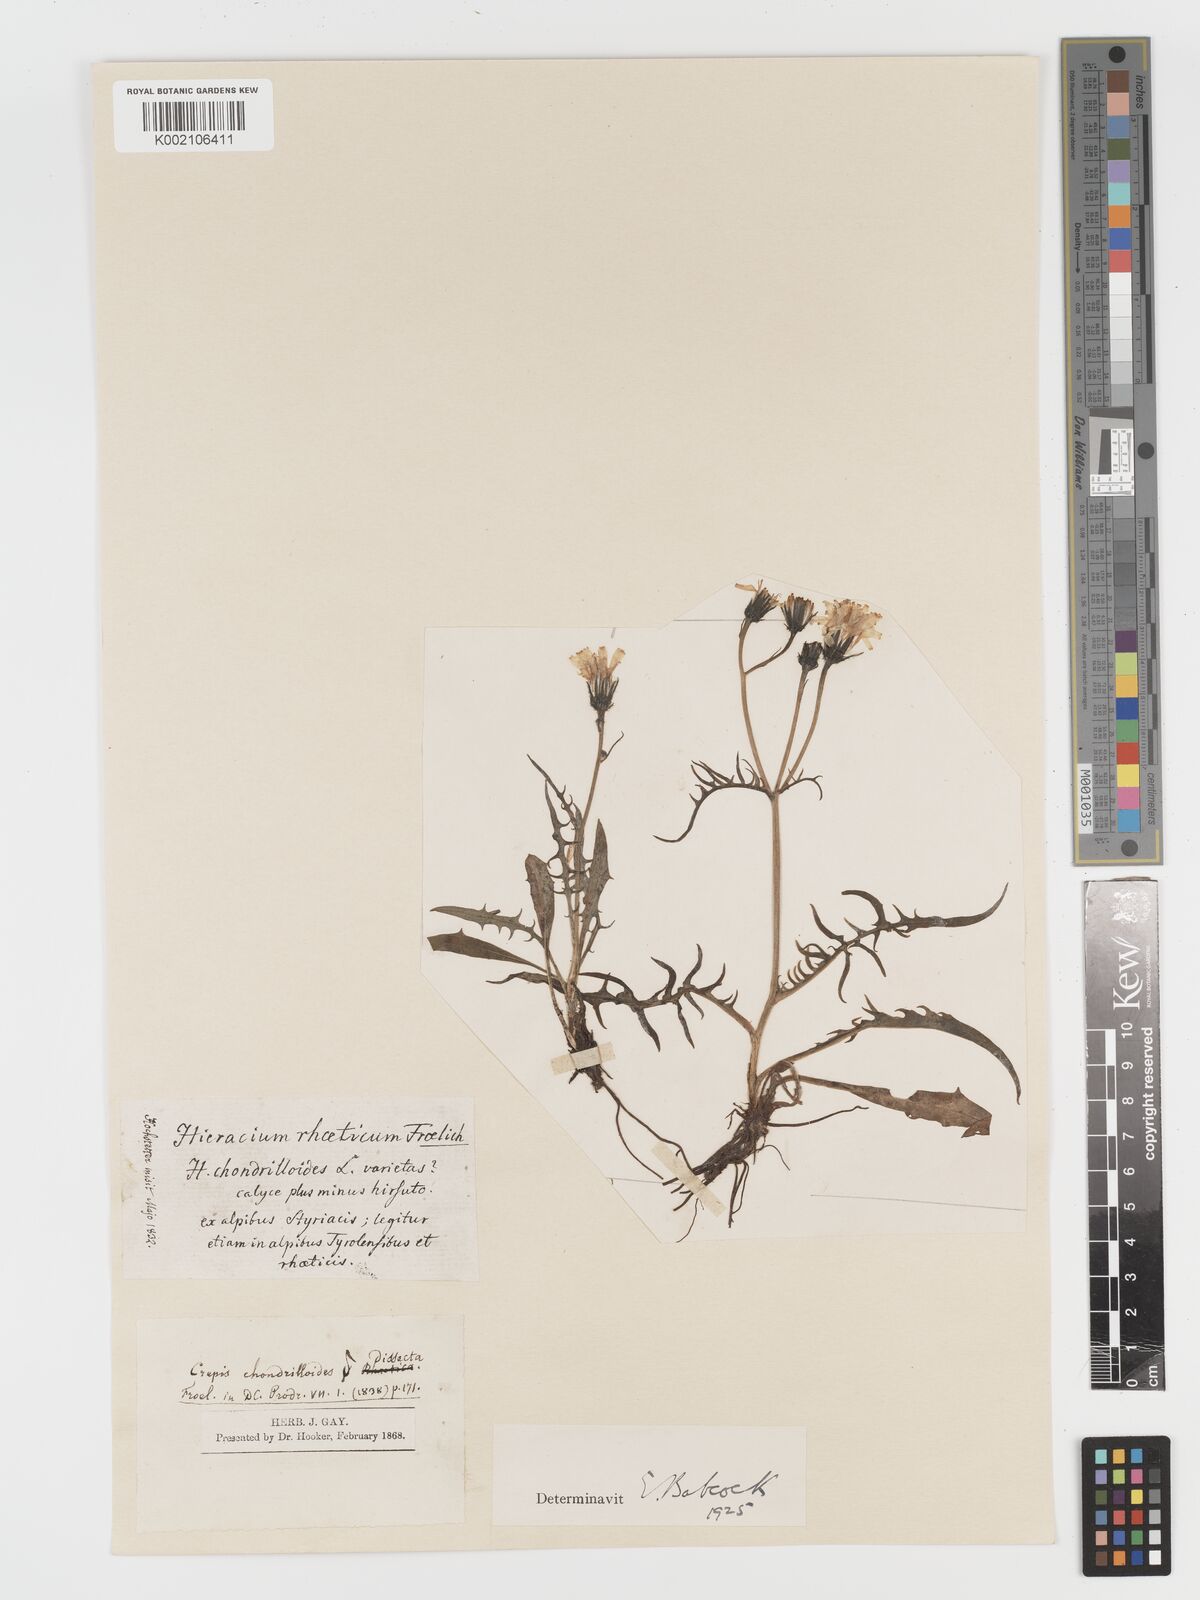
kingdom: Plantae
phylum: Tracheophyta
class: Magnoliopsida
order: Asterales
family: Asteraceae
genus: Crepis
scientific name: Crepis jacquinii
